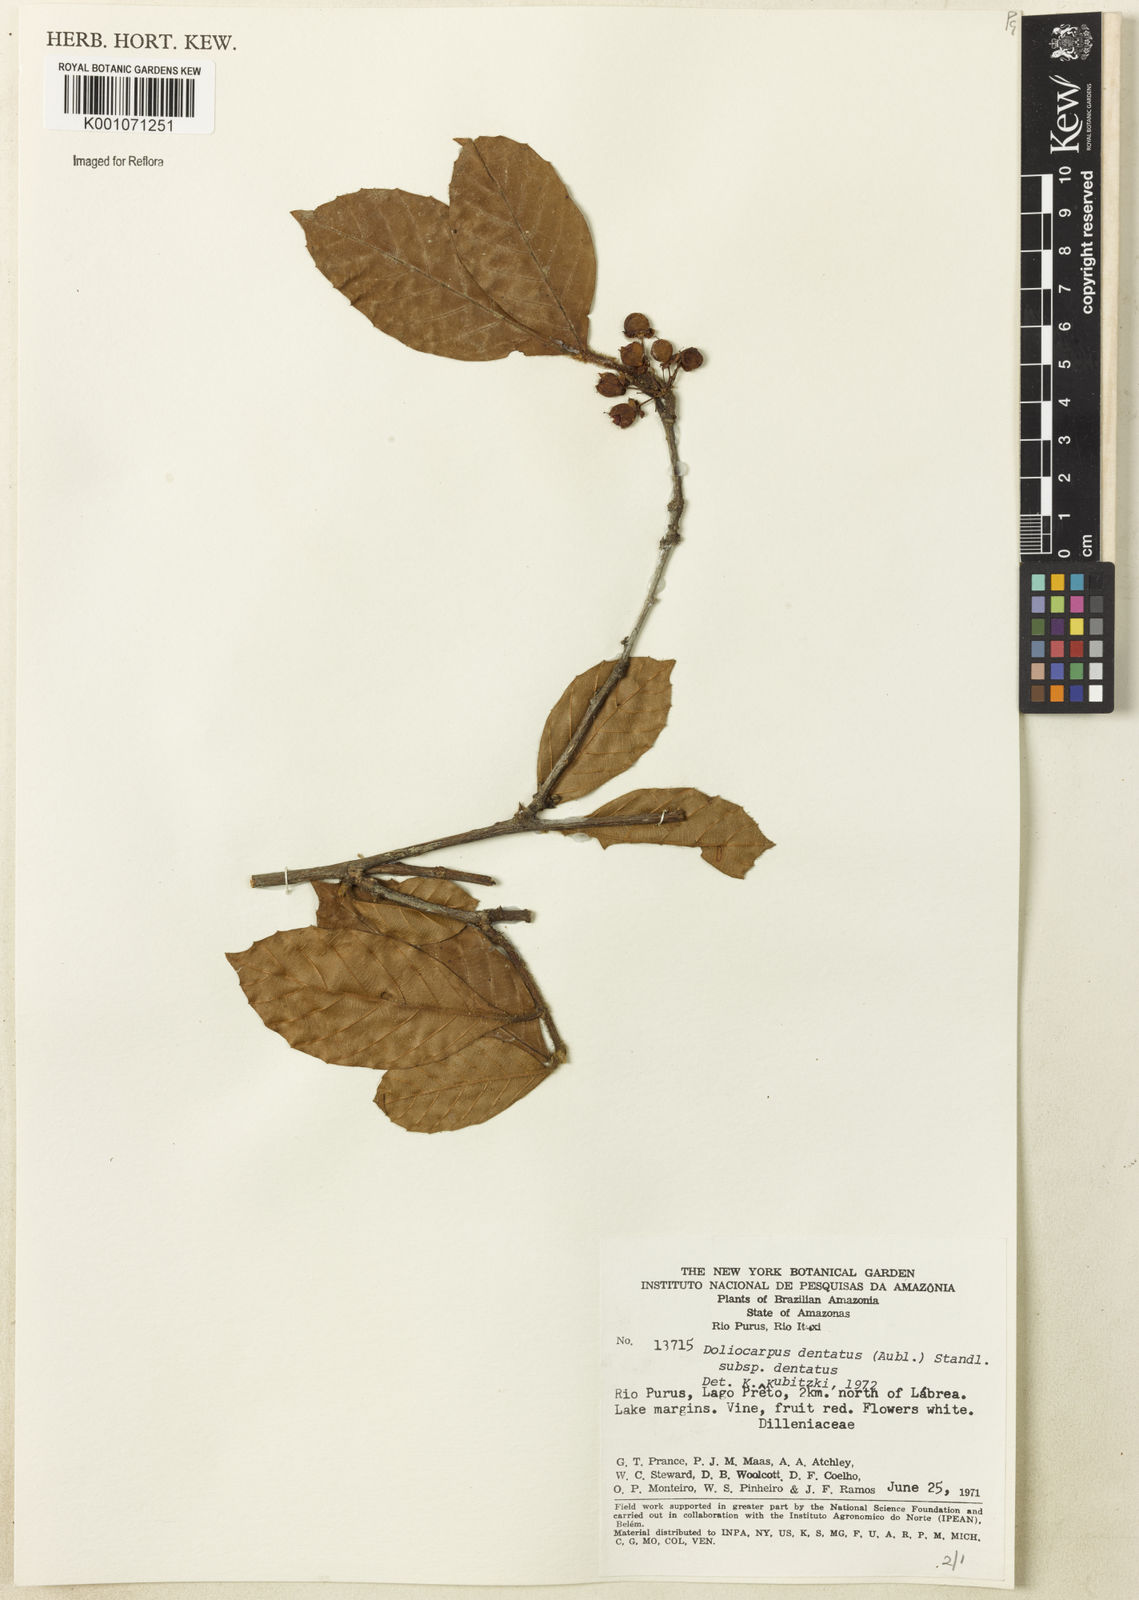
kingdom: Plantae
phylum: Tracheophyta
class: Magnoliopsida
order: Dilleniales
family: Dilleniaceae
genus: Doliocarpus
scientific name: Doliocarpus dentatus
